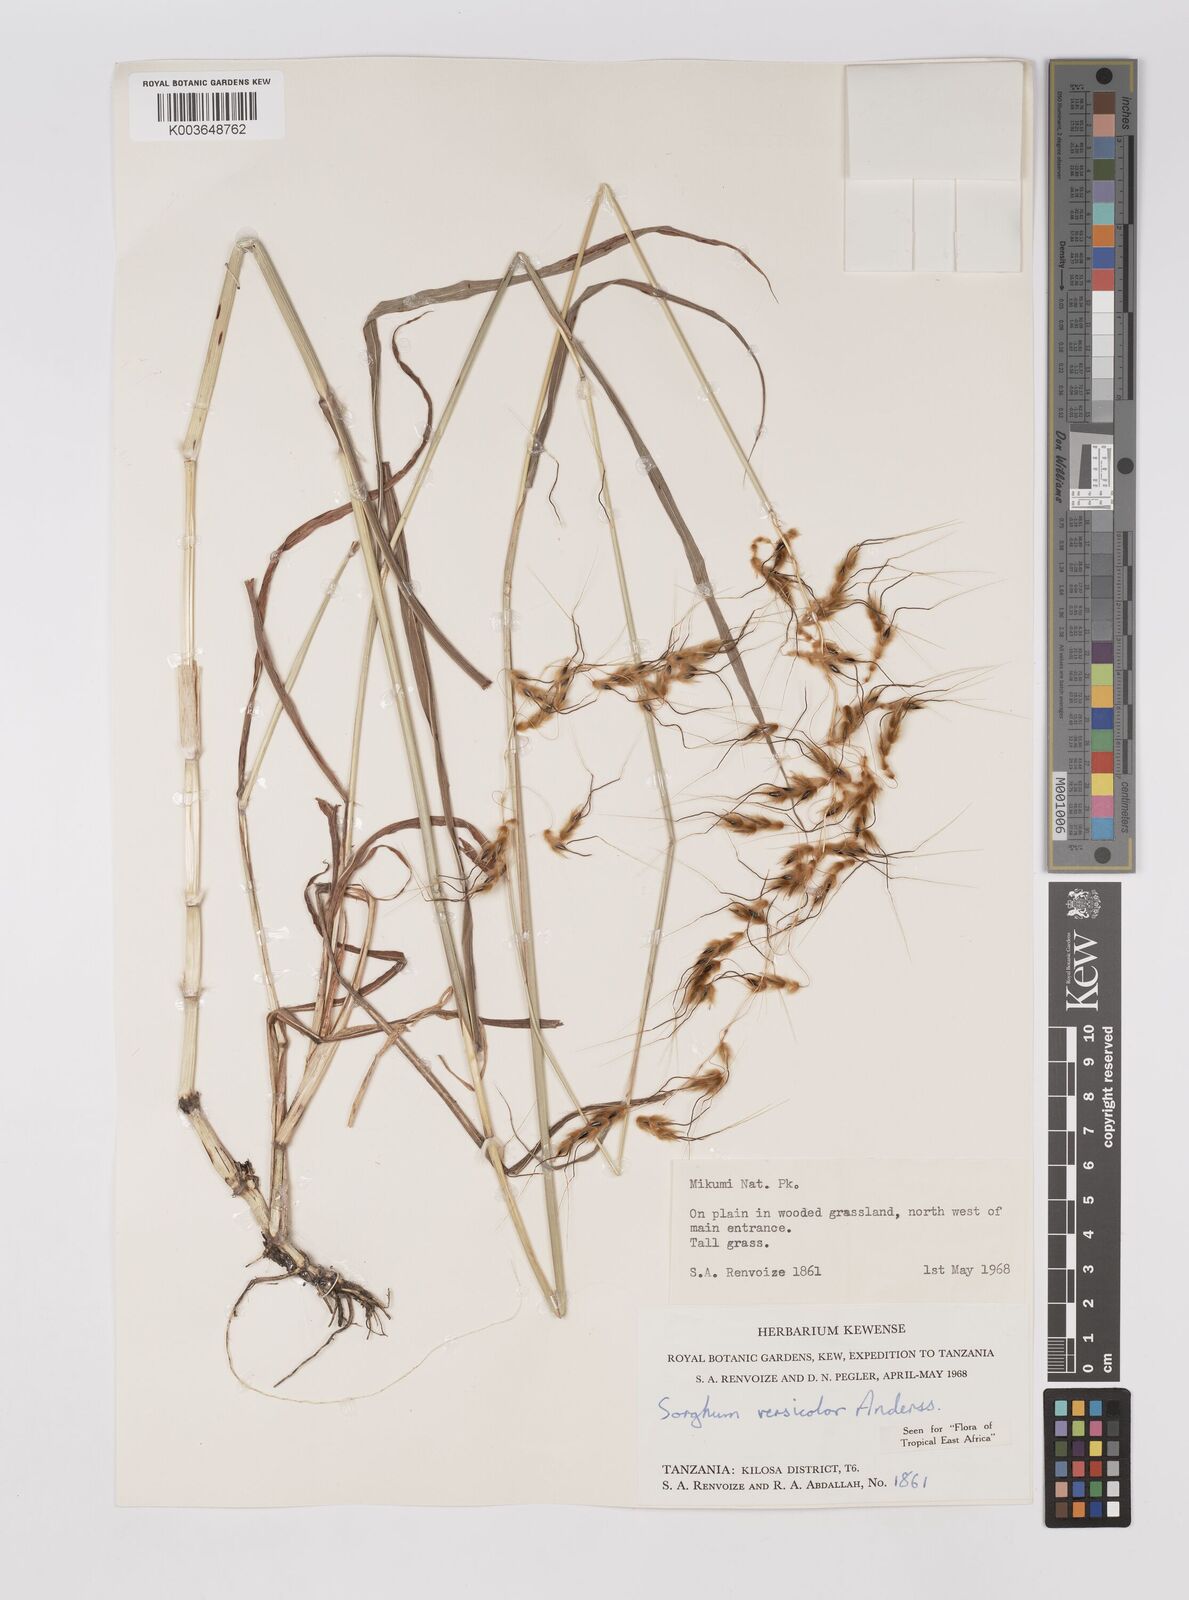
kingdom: Plantae
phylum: Tracheophyta
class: Liliopsida
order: Poales
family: Poaceae
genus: Sarga
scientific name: Sarga versicolor
